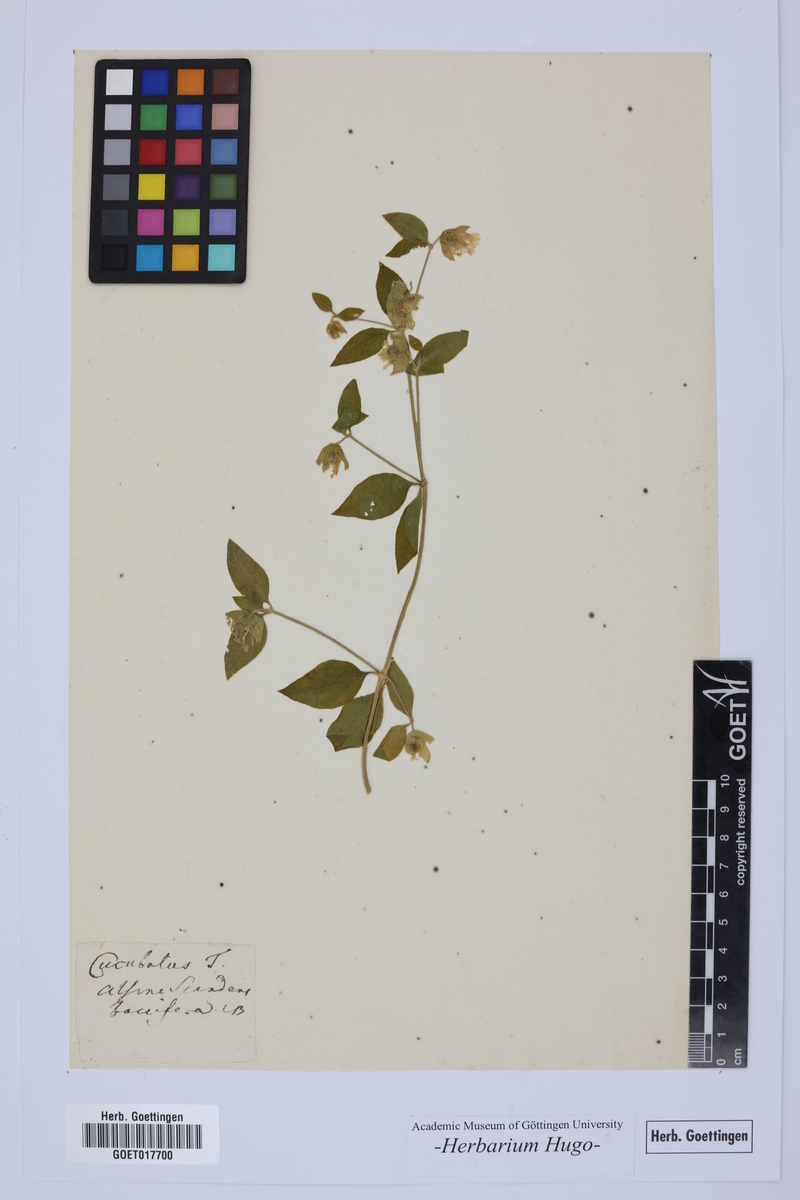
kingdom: Plantae
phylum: Tracheophyta
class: Magnoliopsida
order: Caryophyllales
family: Caryophyllaceae
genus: Silene
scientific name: Silene baccifera
